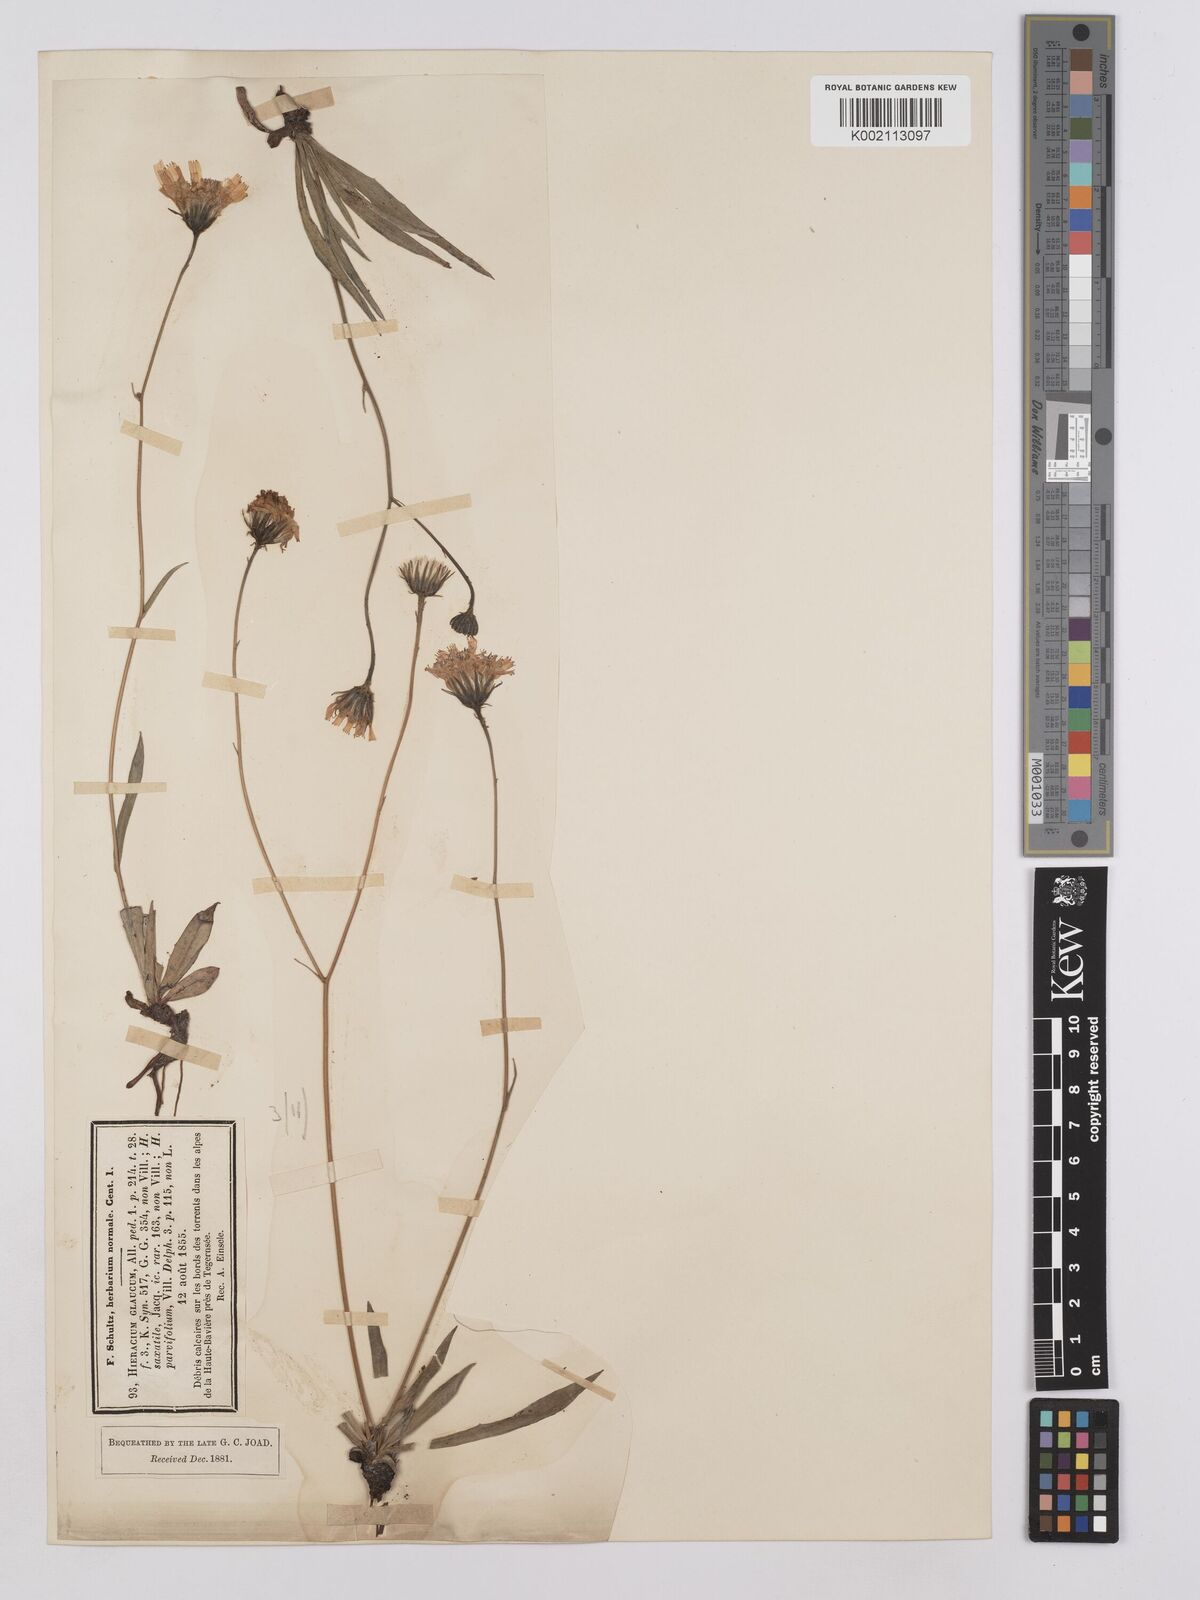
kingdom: Plantae
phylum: Tracheophyta
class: Magnoliopsida
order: Asterales
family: Asteraceae
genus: Hieracium
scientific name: Hieracium glaucum
